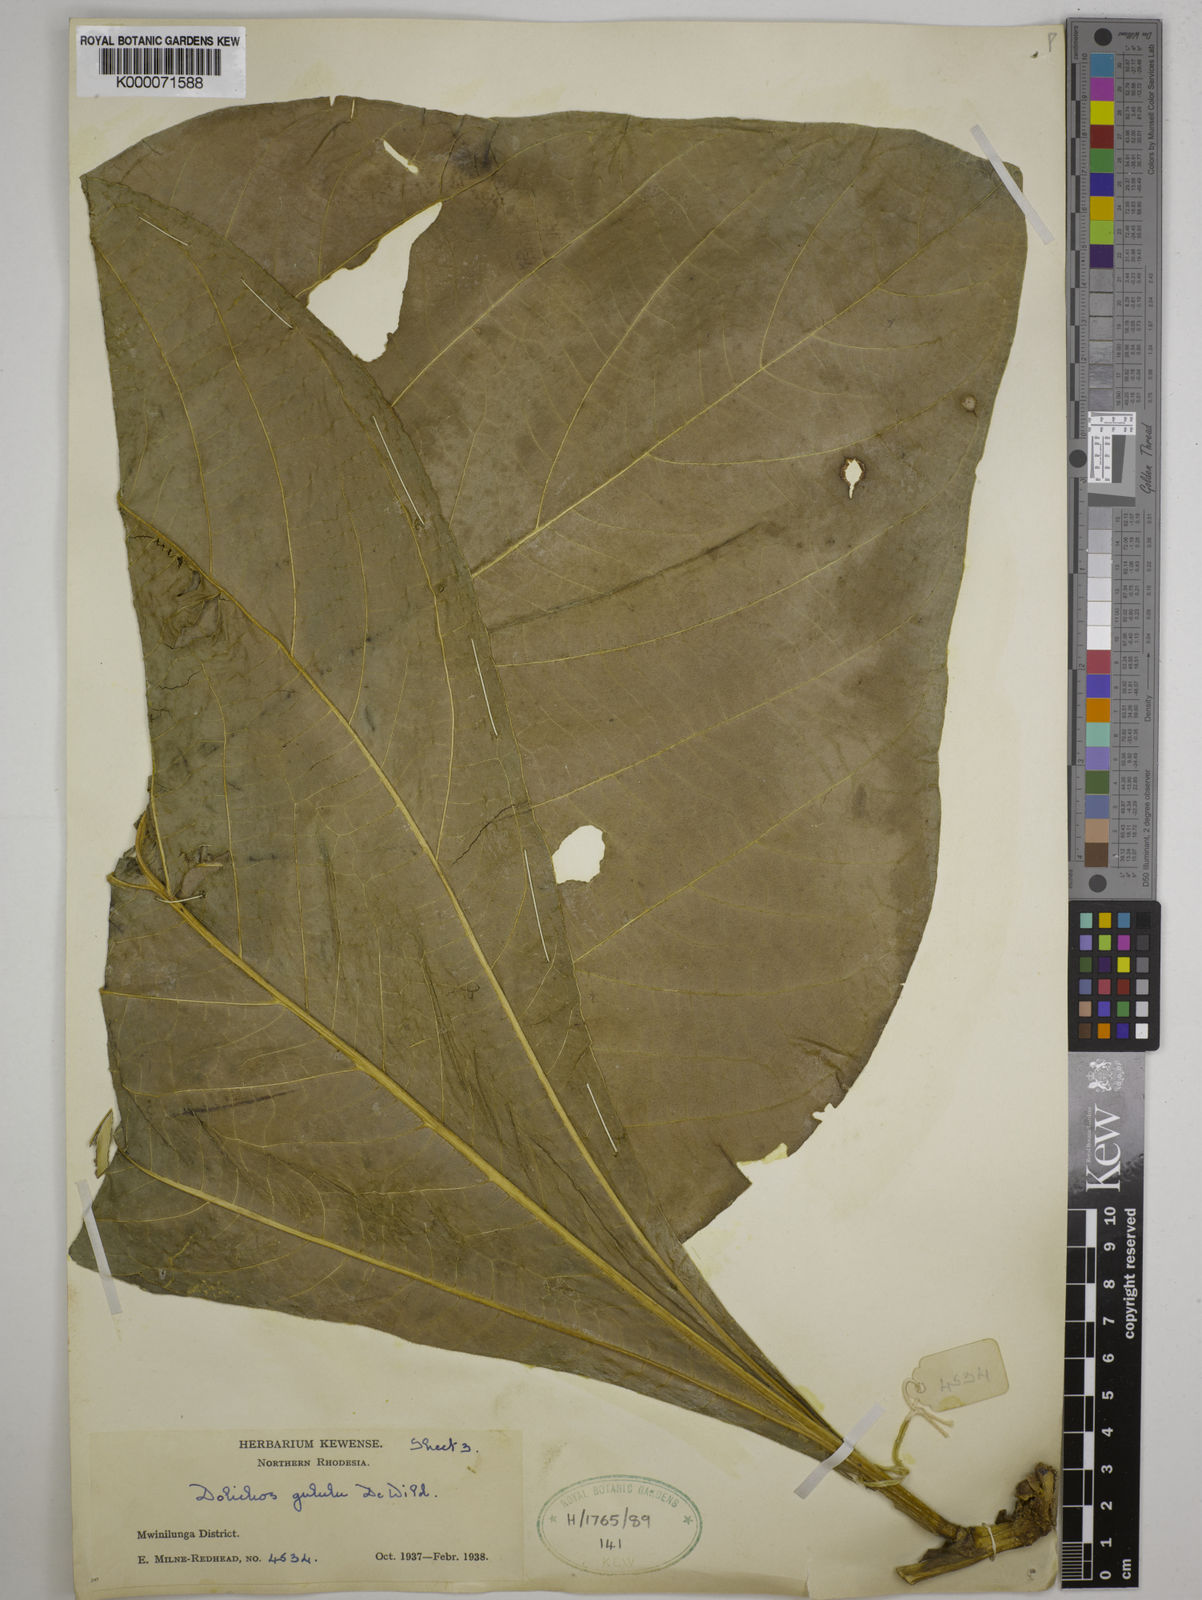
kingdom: Plantae
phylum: Tracheophyta
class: Magnoliopsida
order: Fabales
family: Fabaceae
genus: Dolichos
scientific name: Dolichos gululu
